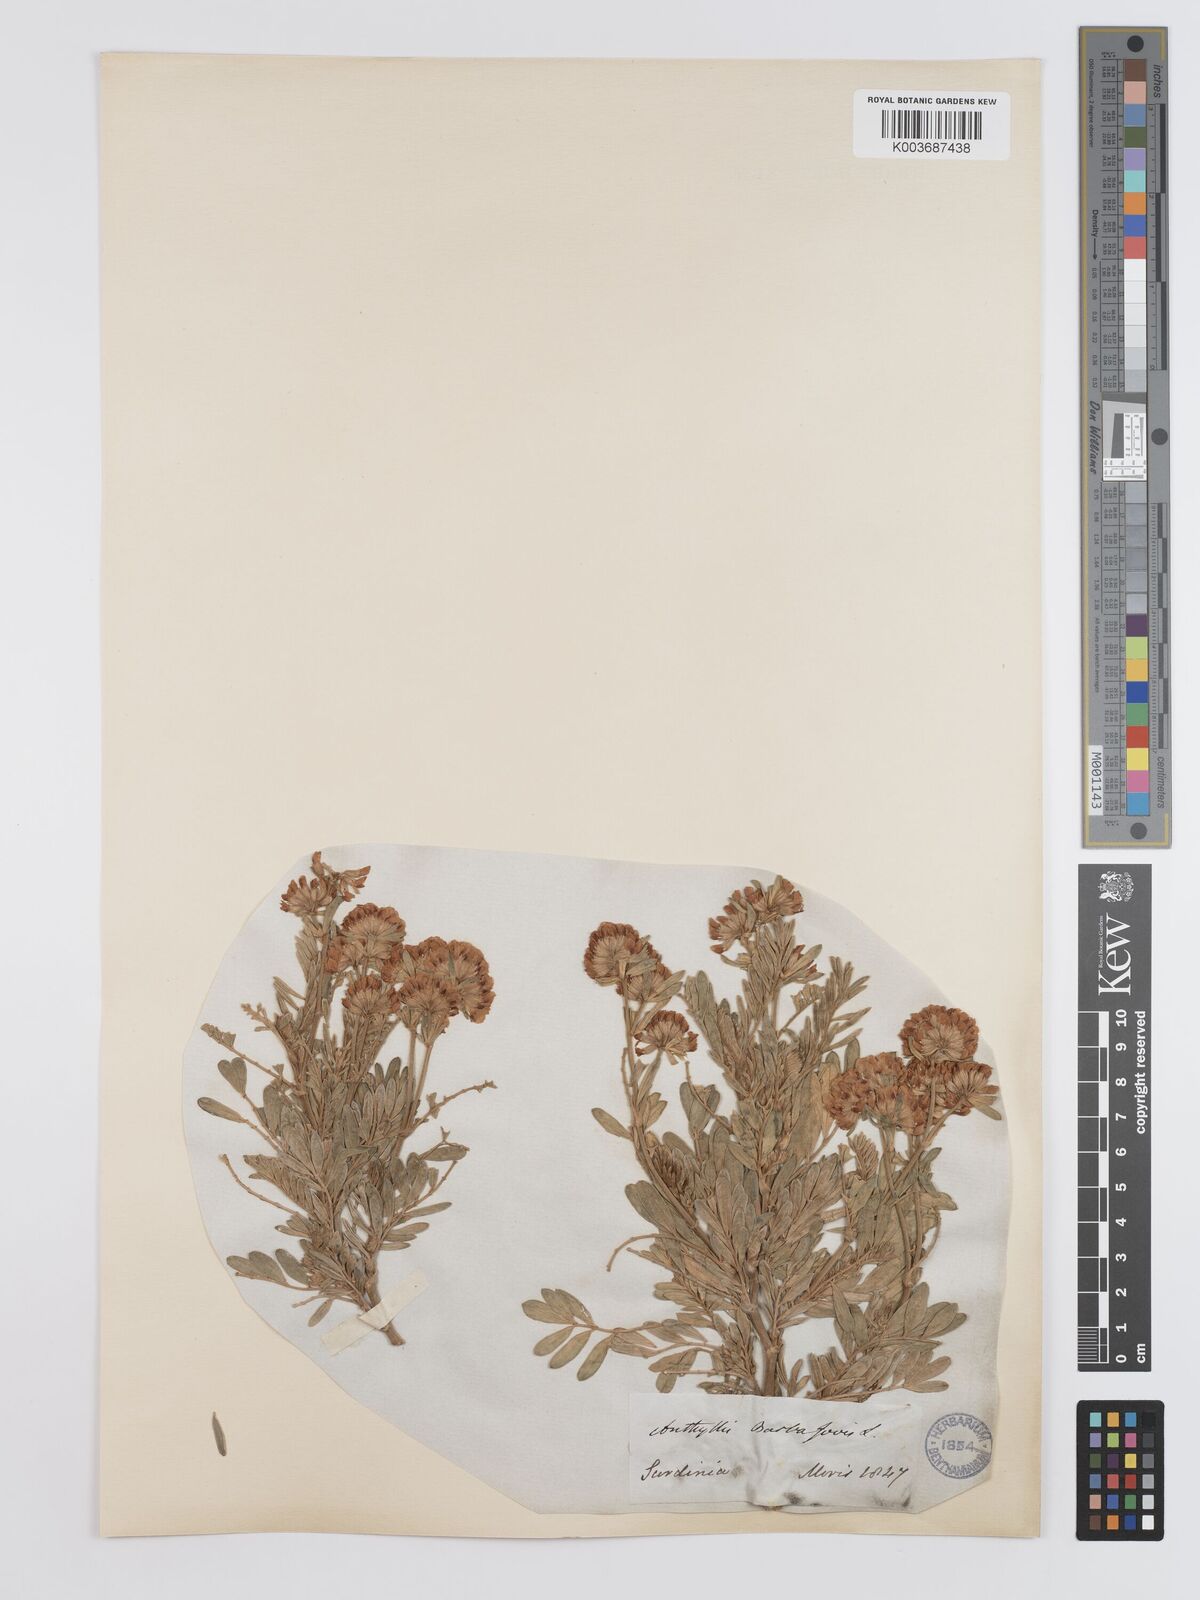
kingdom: Plantae
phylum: Tracheophyta
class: Magnoliopsida
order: Fabales
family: Fabaceae
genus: Anthyllis
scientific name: Anthyllis barba-jovis
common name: Jupiter's-beard
